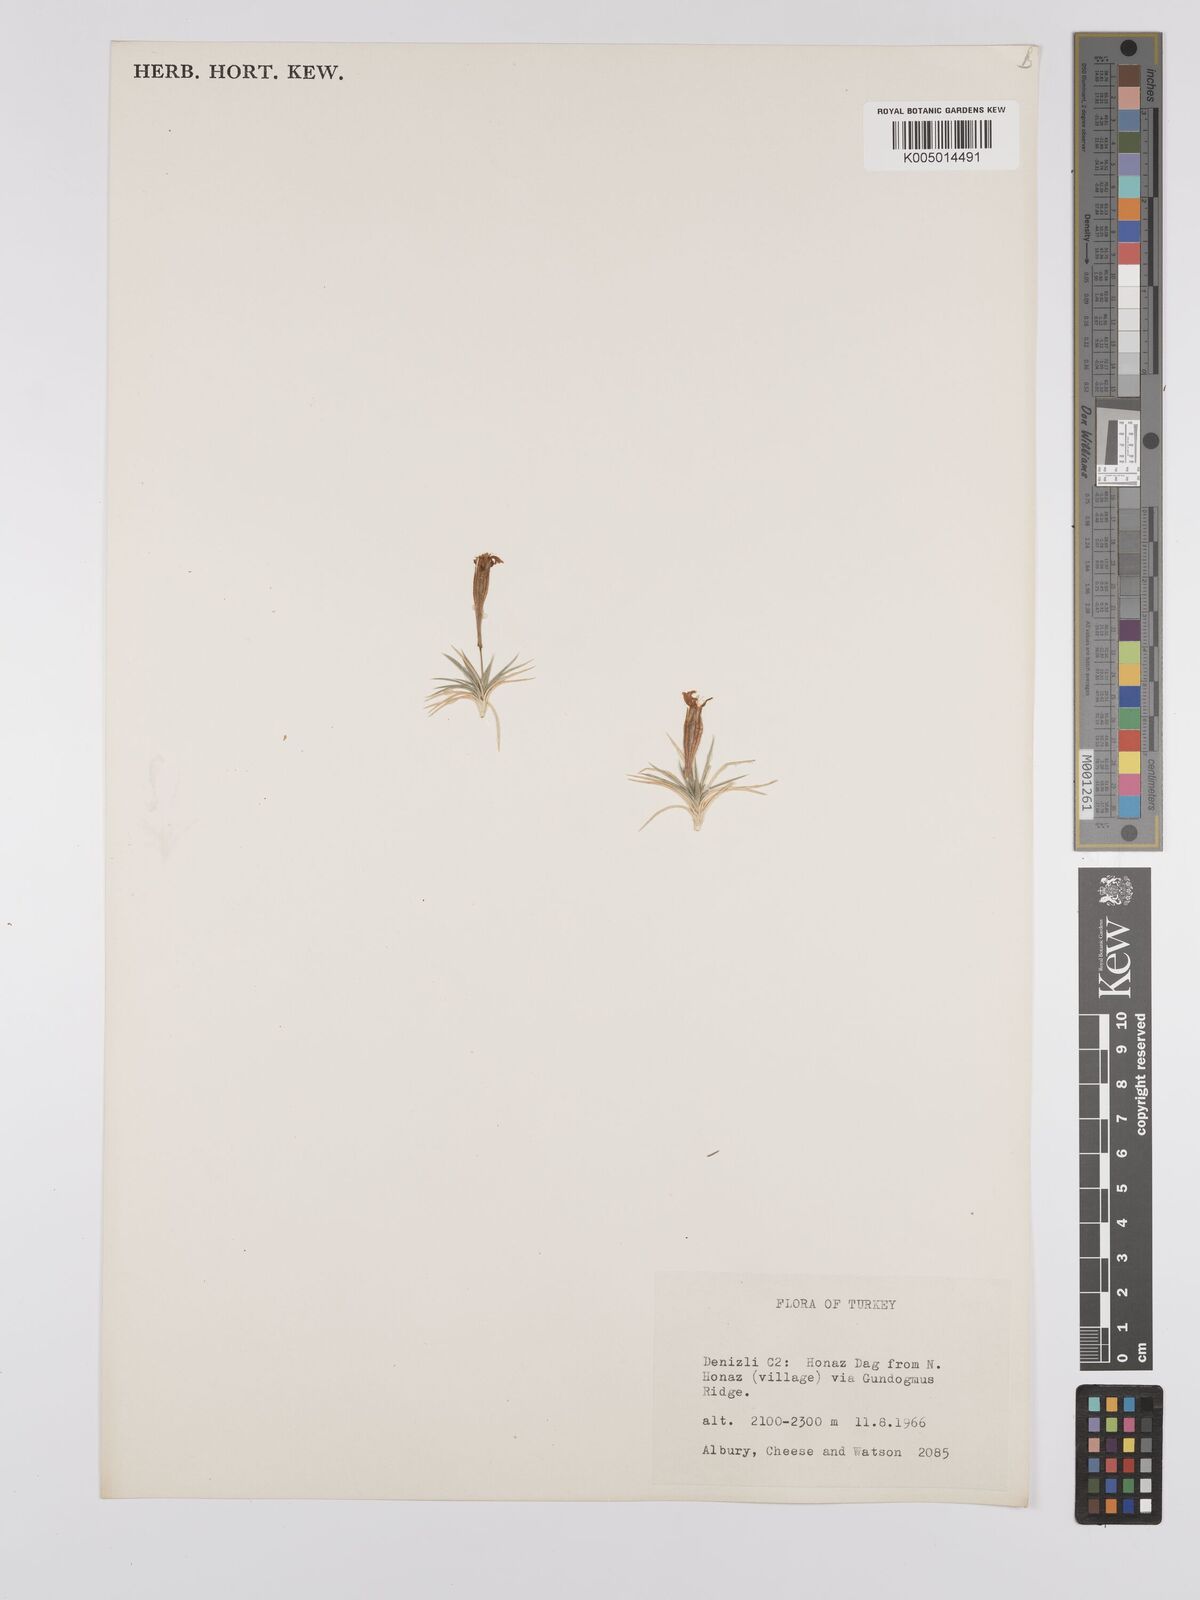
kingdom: Plantae
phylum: Tracheophyta
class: Magnoliopsida
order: Caryophyllales
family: Caryophyllaceae
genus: Silene
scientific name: Silene
